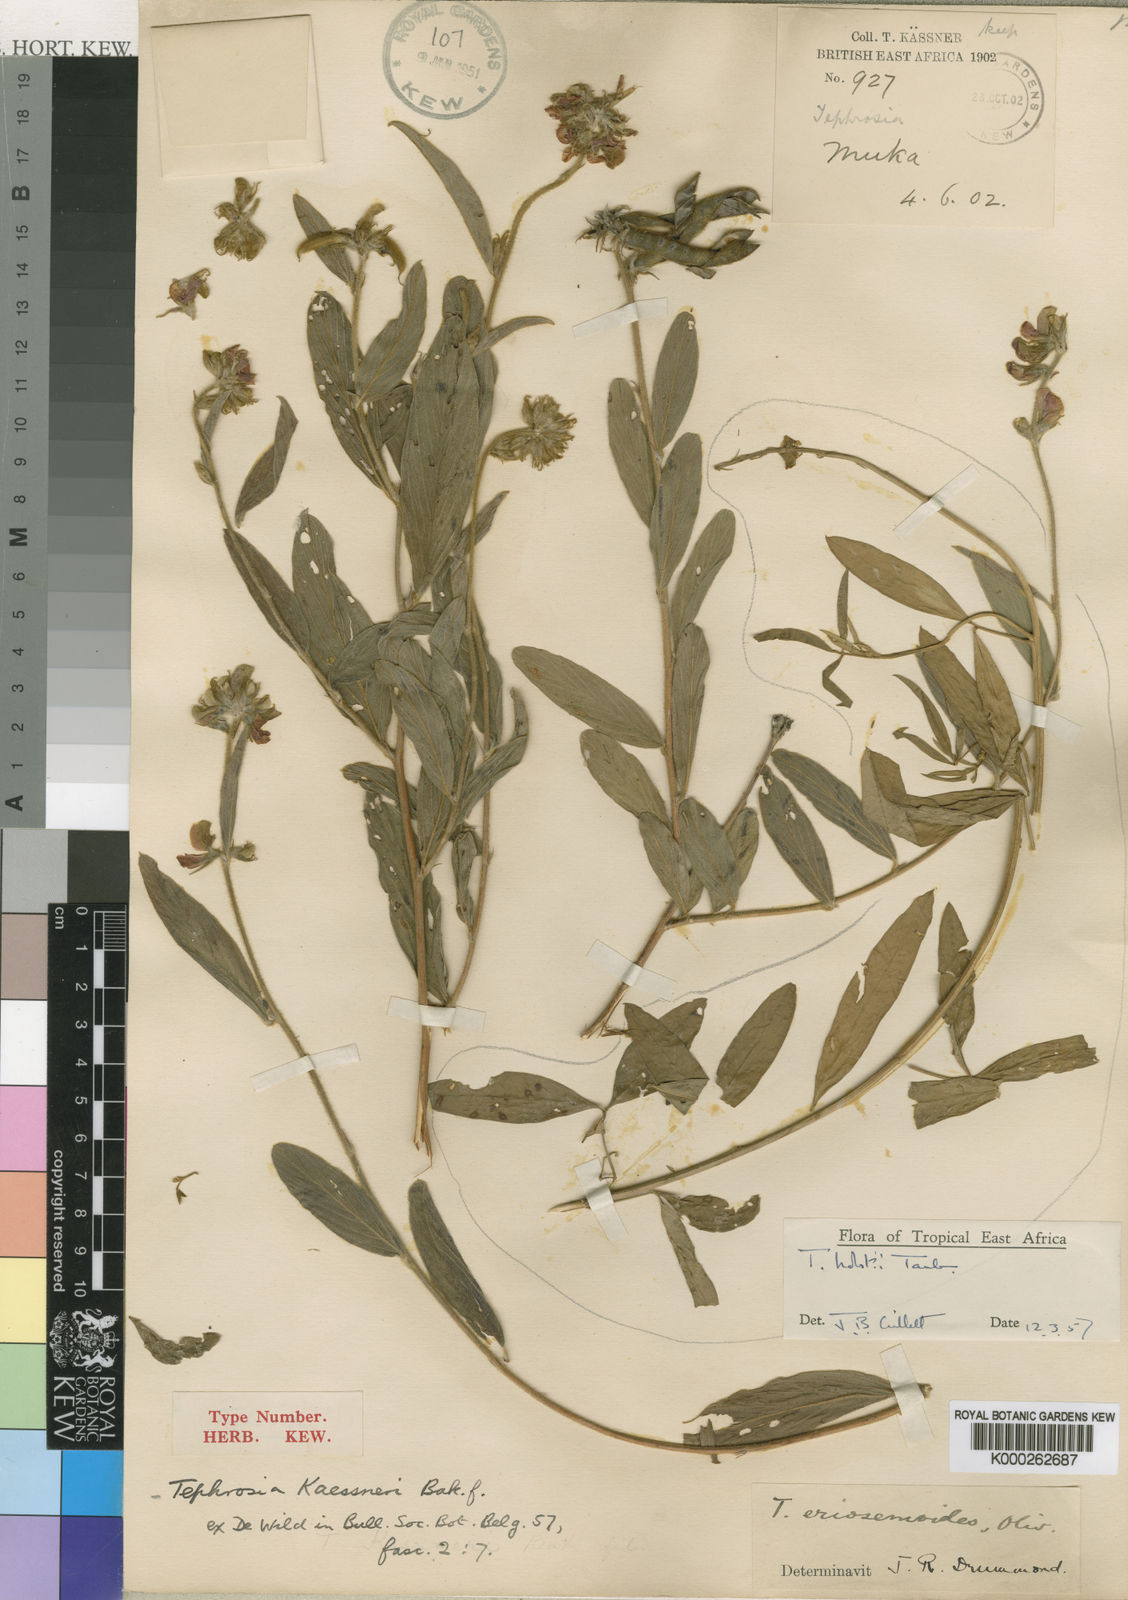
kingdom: Plantae
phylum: Tracheophyta
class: Magnoliopsida
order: Fabales
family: Fabaceae
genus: Tephrosia
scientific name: Tephrosia holstii
